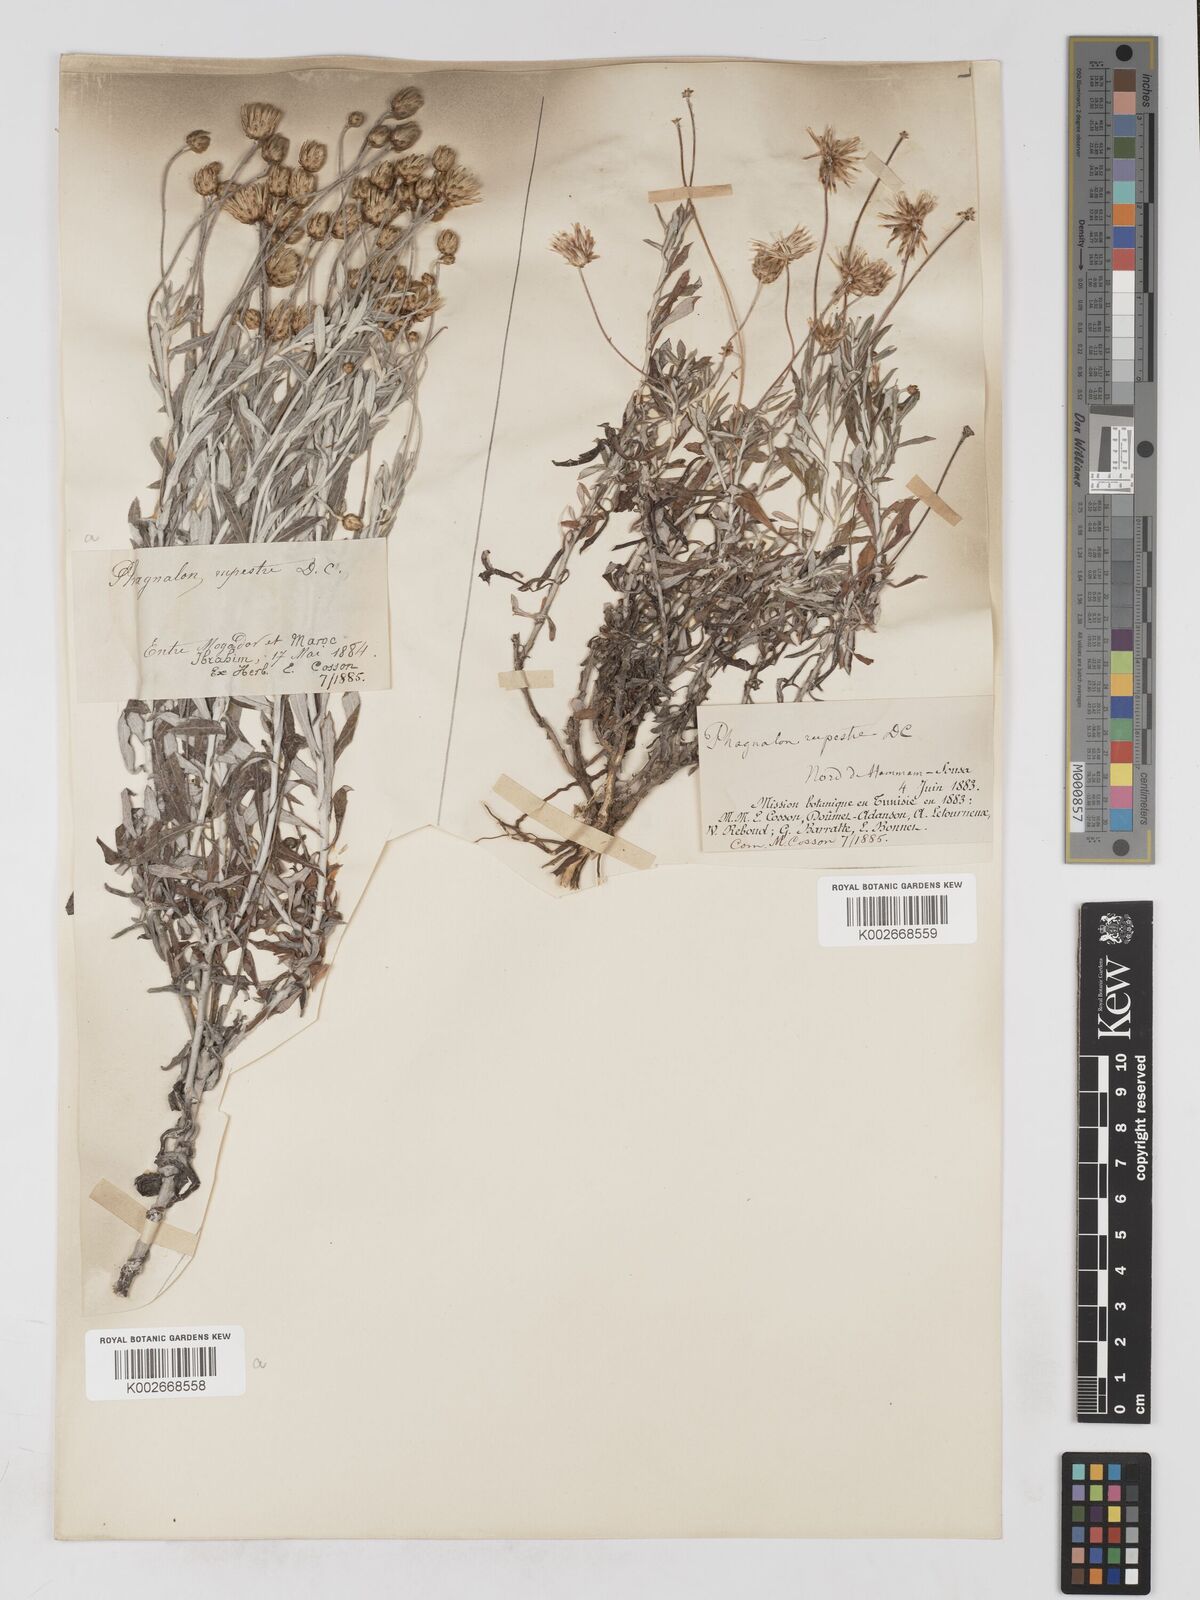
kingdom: Plantae
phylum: Tracheophyta
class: Magnoliopsida
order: Asterales
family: Asteraceae
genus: Phagnalon
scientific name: Phagnalon rupestre
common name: Rock phagnalon
